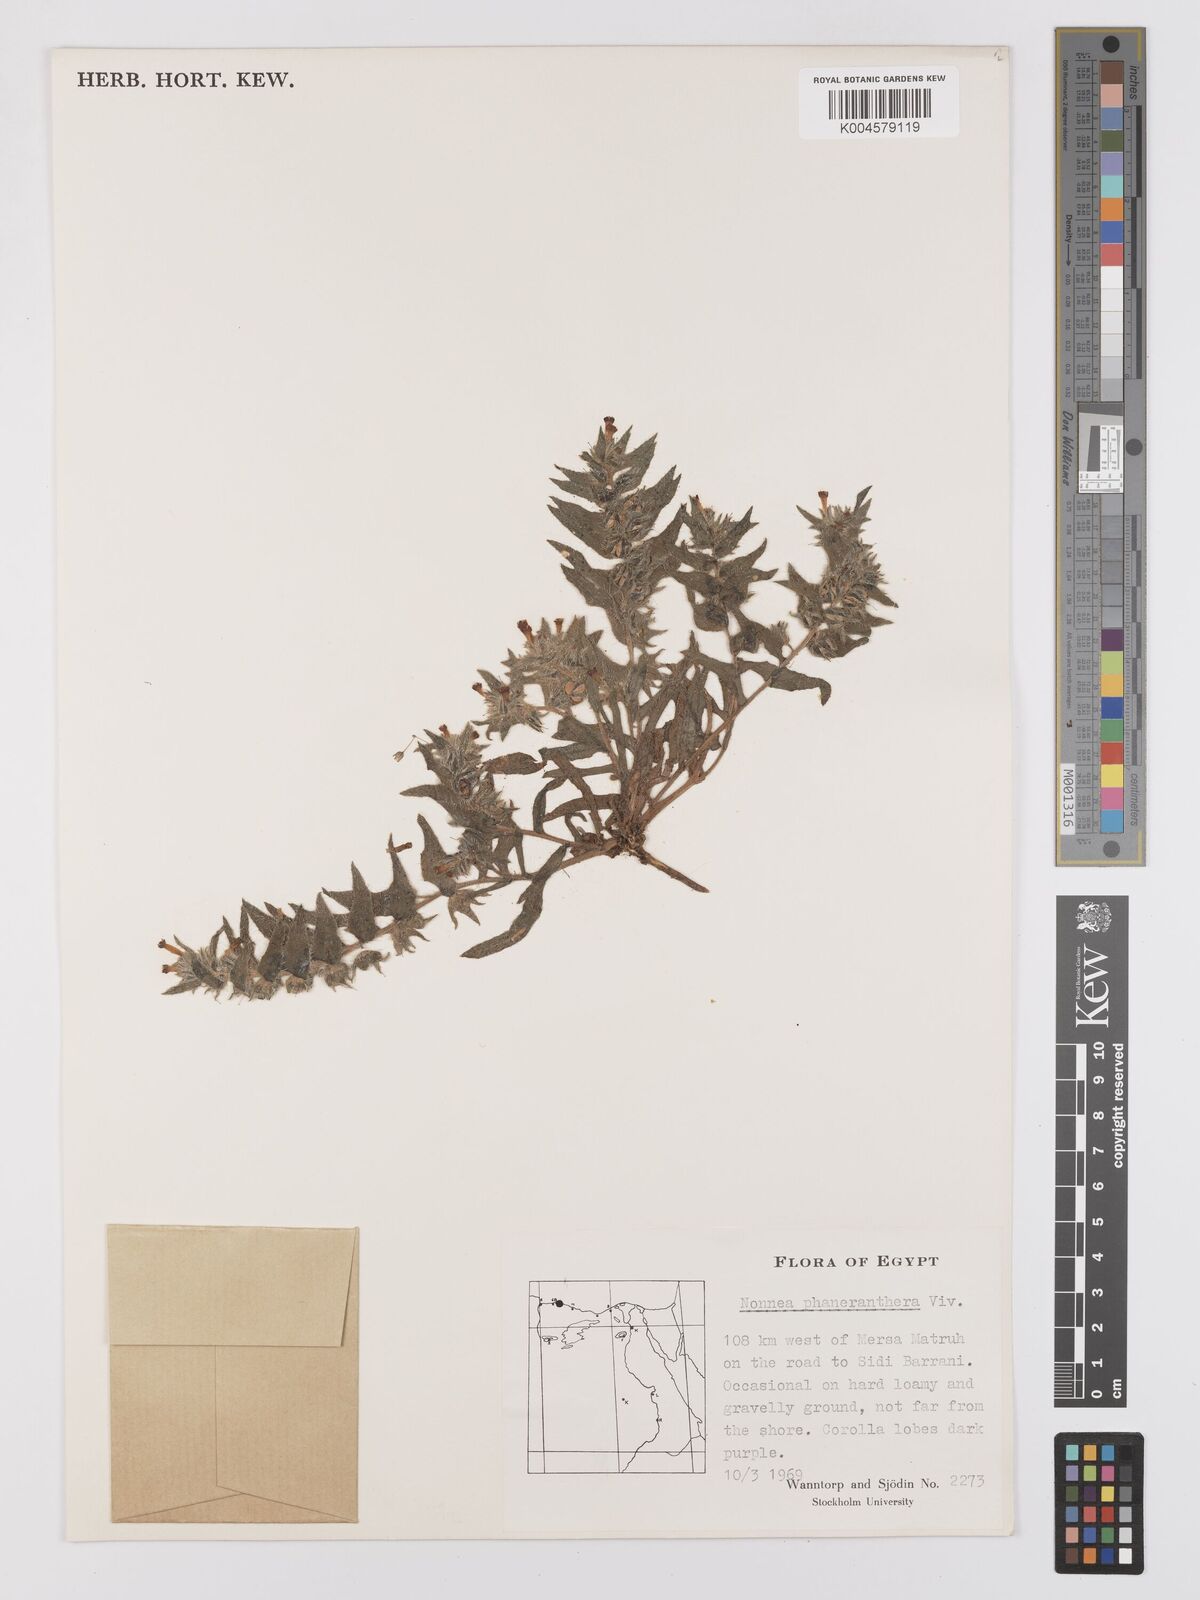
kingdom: Plantae
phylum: Tracheophyta
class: Magnoliopsida
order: Boraginales
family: Boraginaceae
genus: Nonea
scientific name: Nonea calycina
